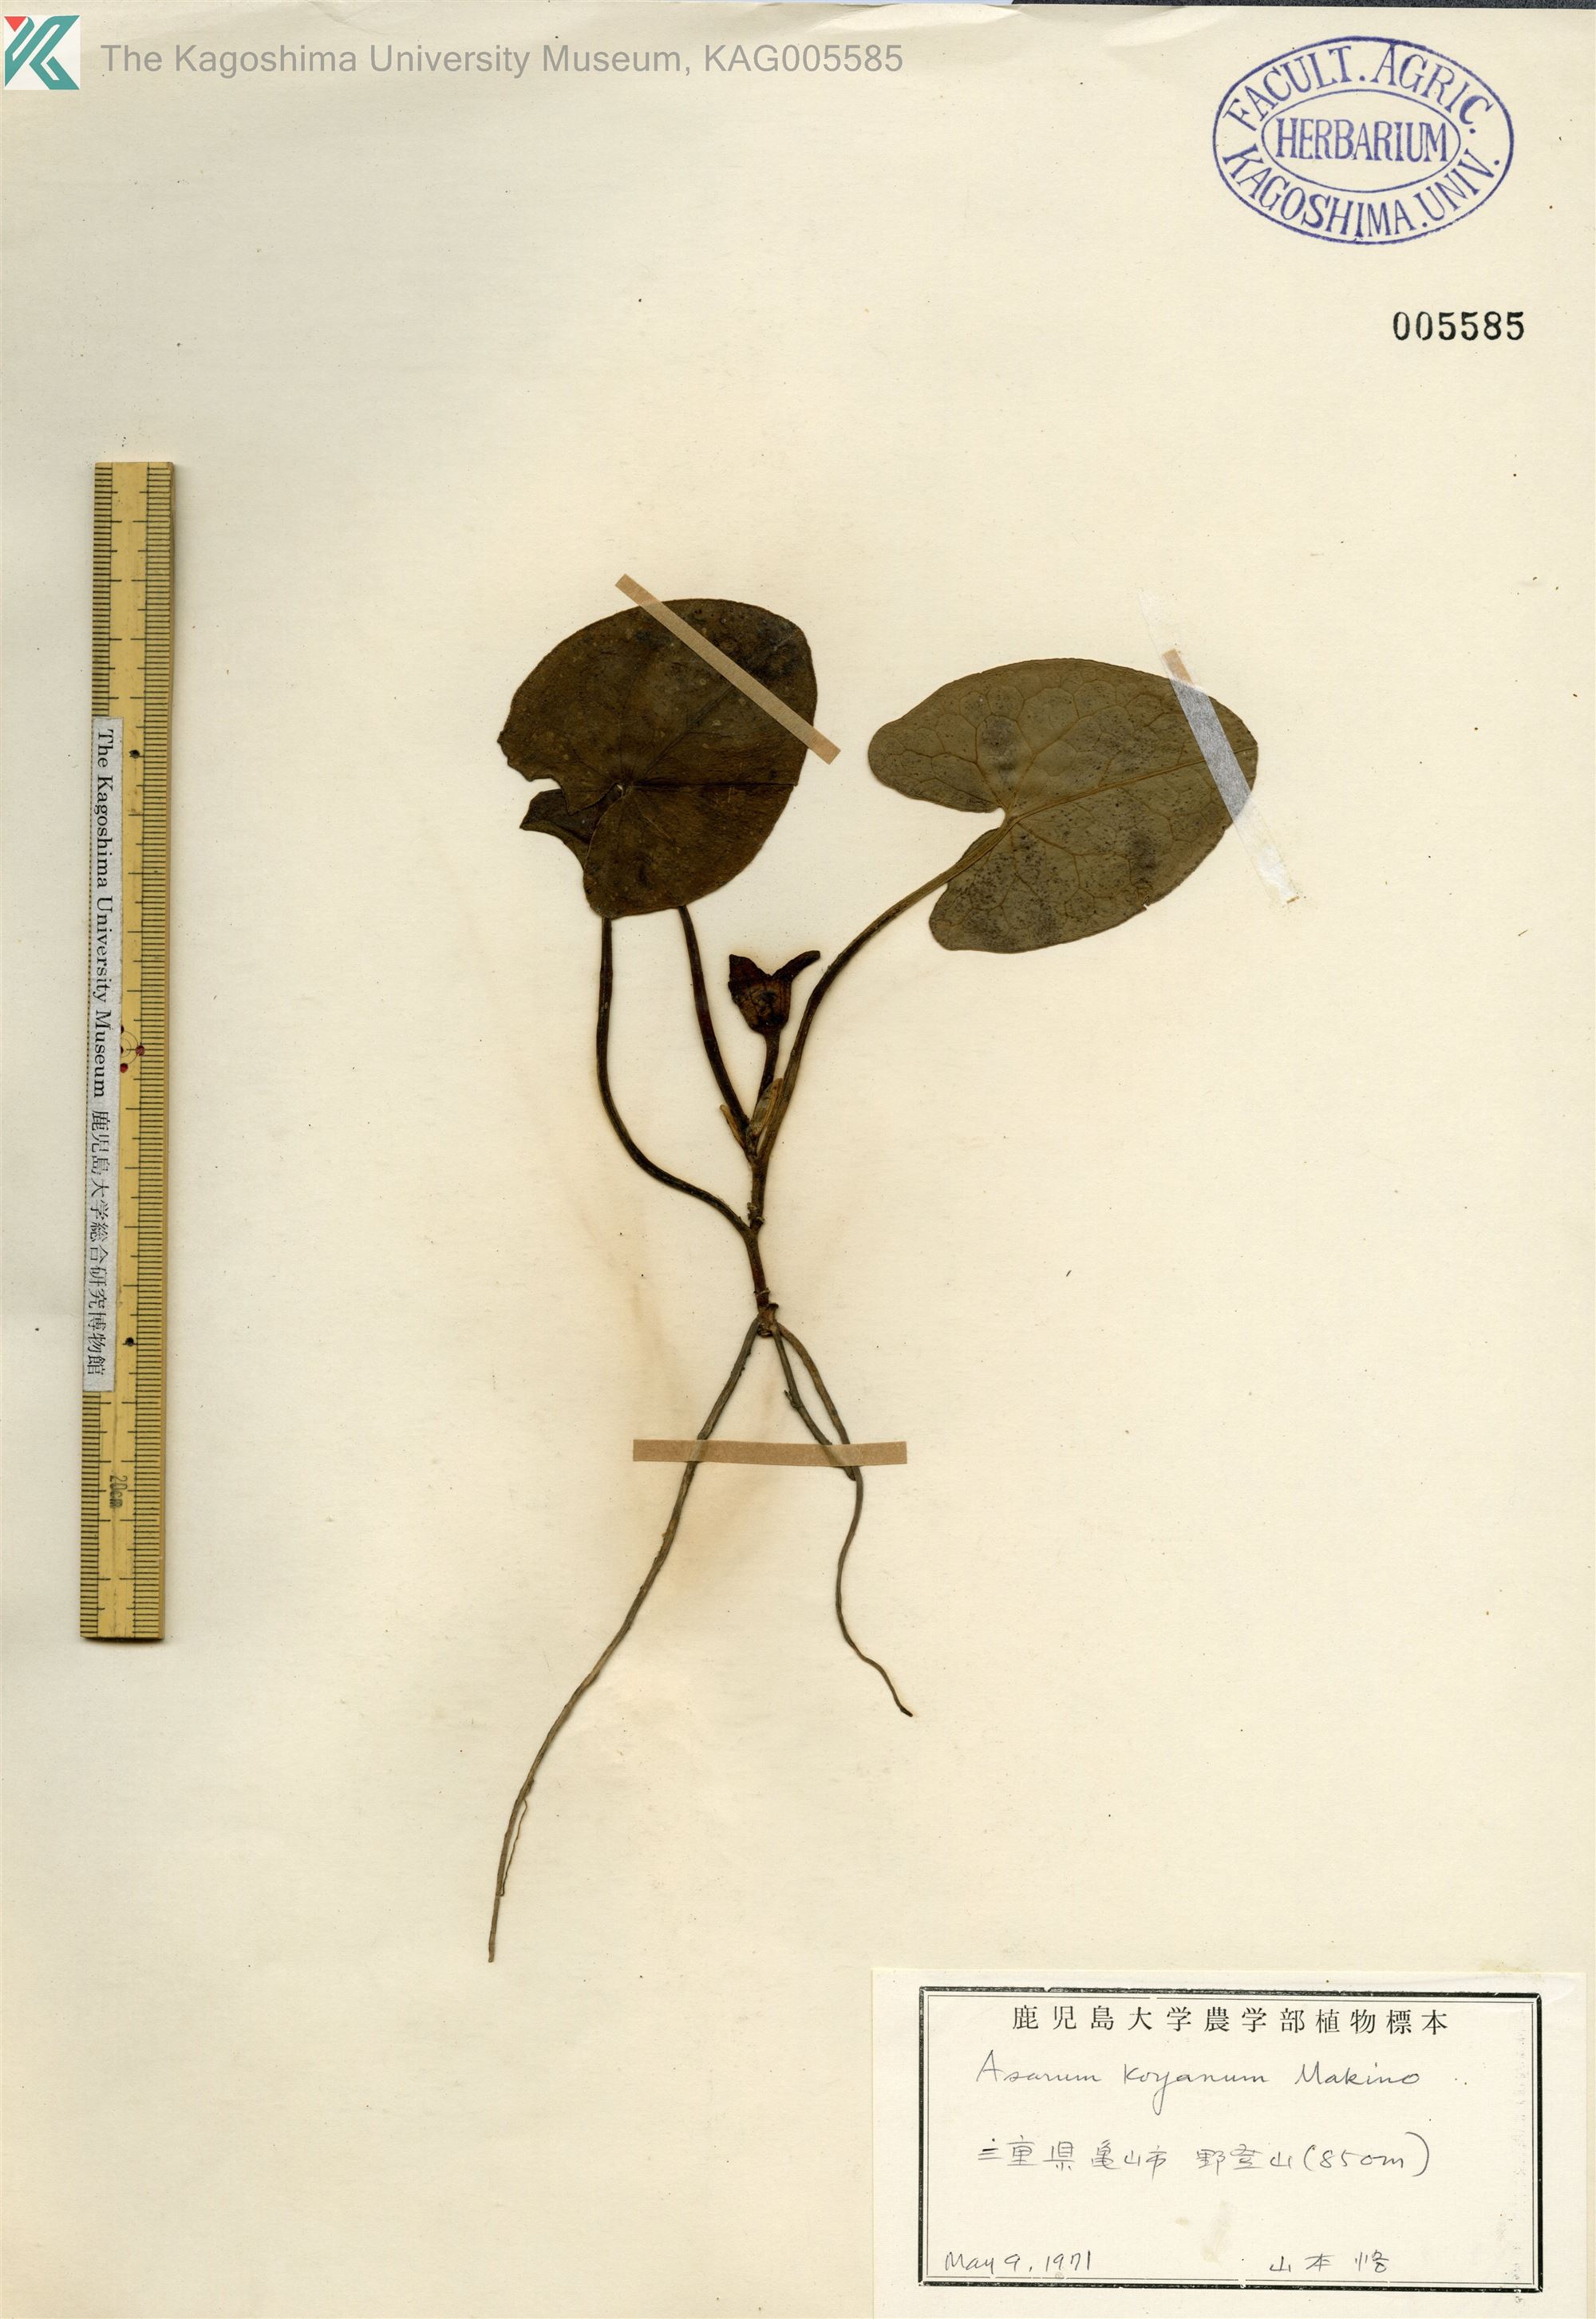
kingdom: Plantae
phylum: Tracheophyta
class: Magnoliopsida
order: Piperales
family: Aristolochiaceae
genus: Asarum
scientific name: Asarum kooyanum
